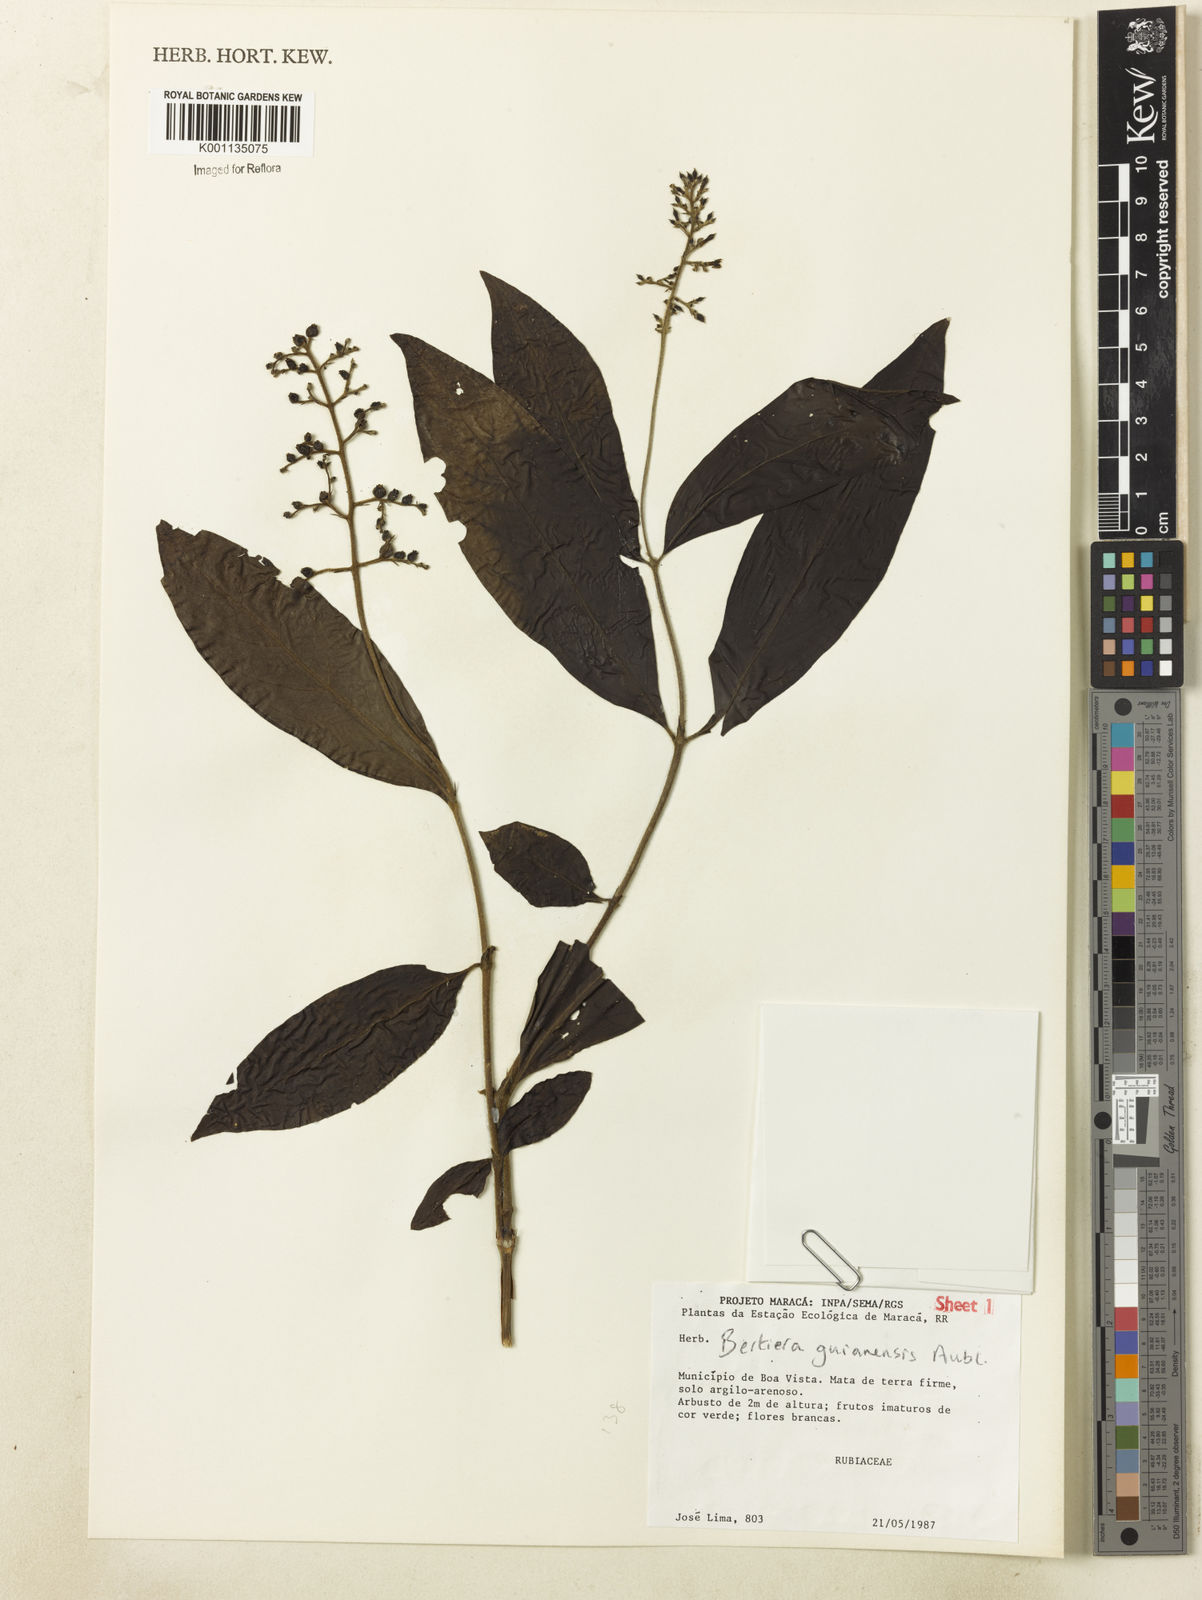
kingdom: Plantae
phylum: Tracheophyta
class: Magnoliopsida
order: Gentianales
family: Rubiaceae
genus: Bertiera
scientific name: Bertiera guianensis
